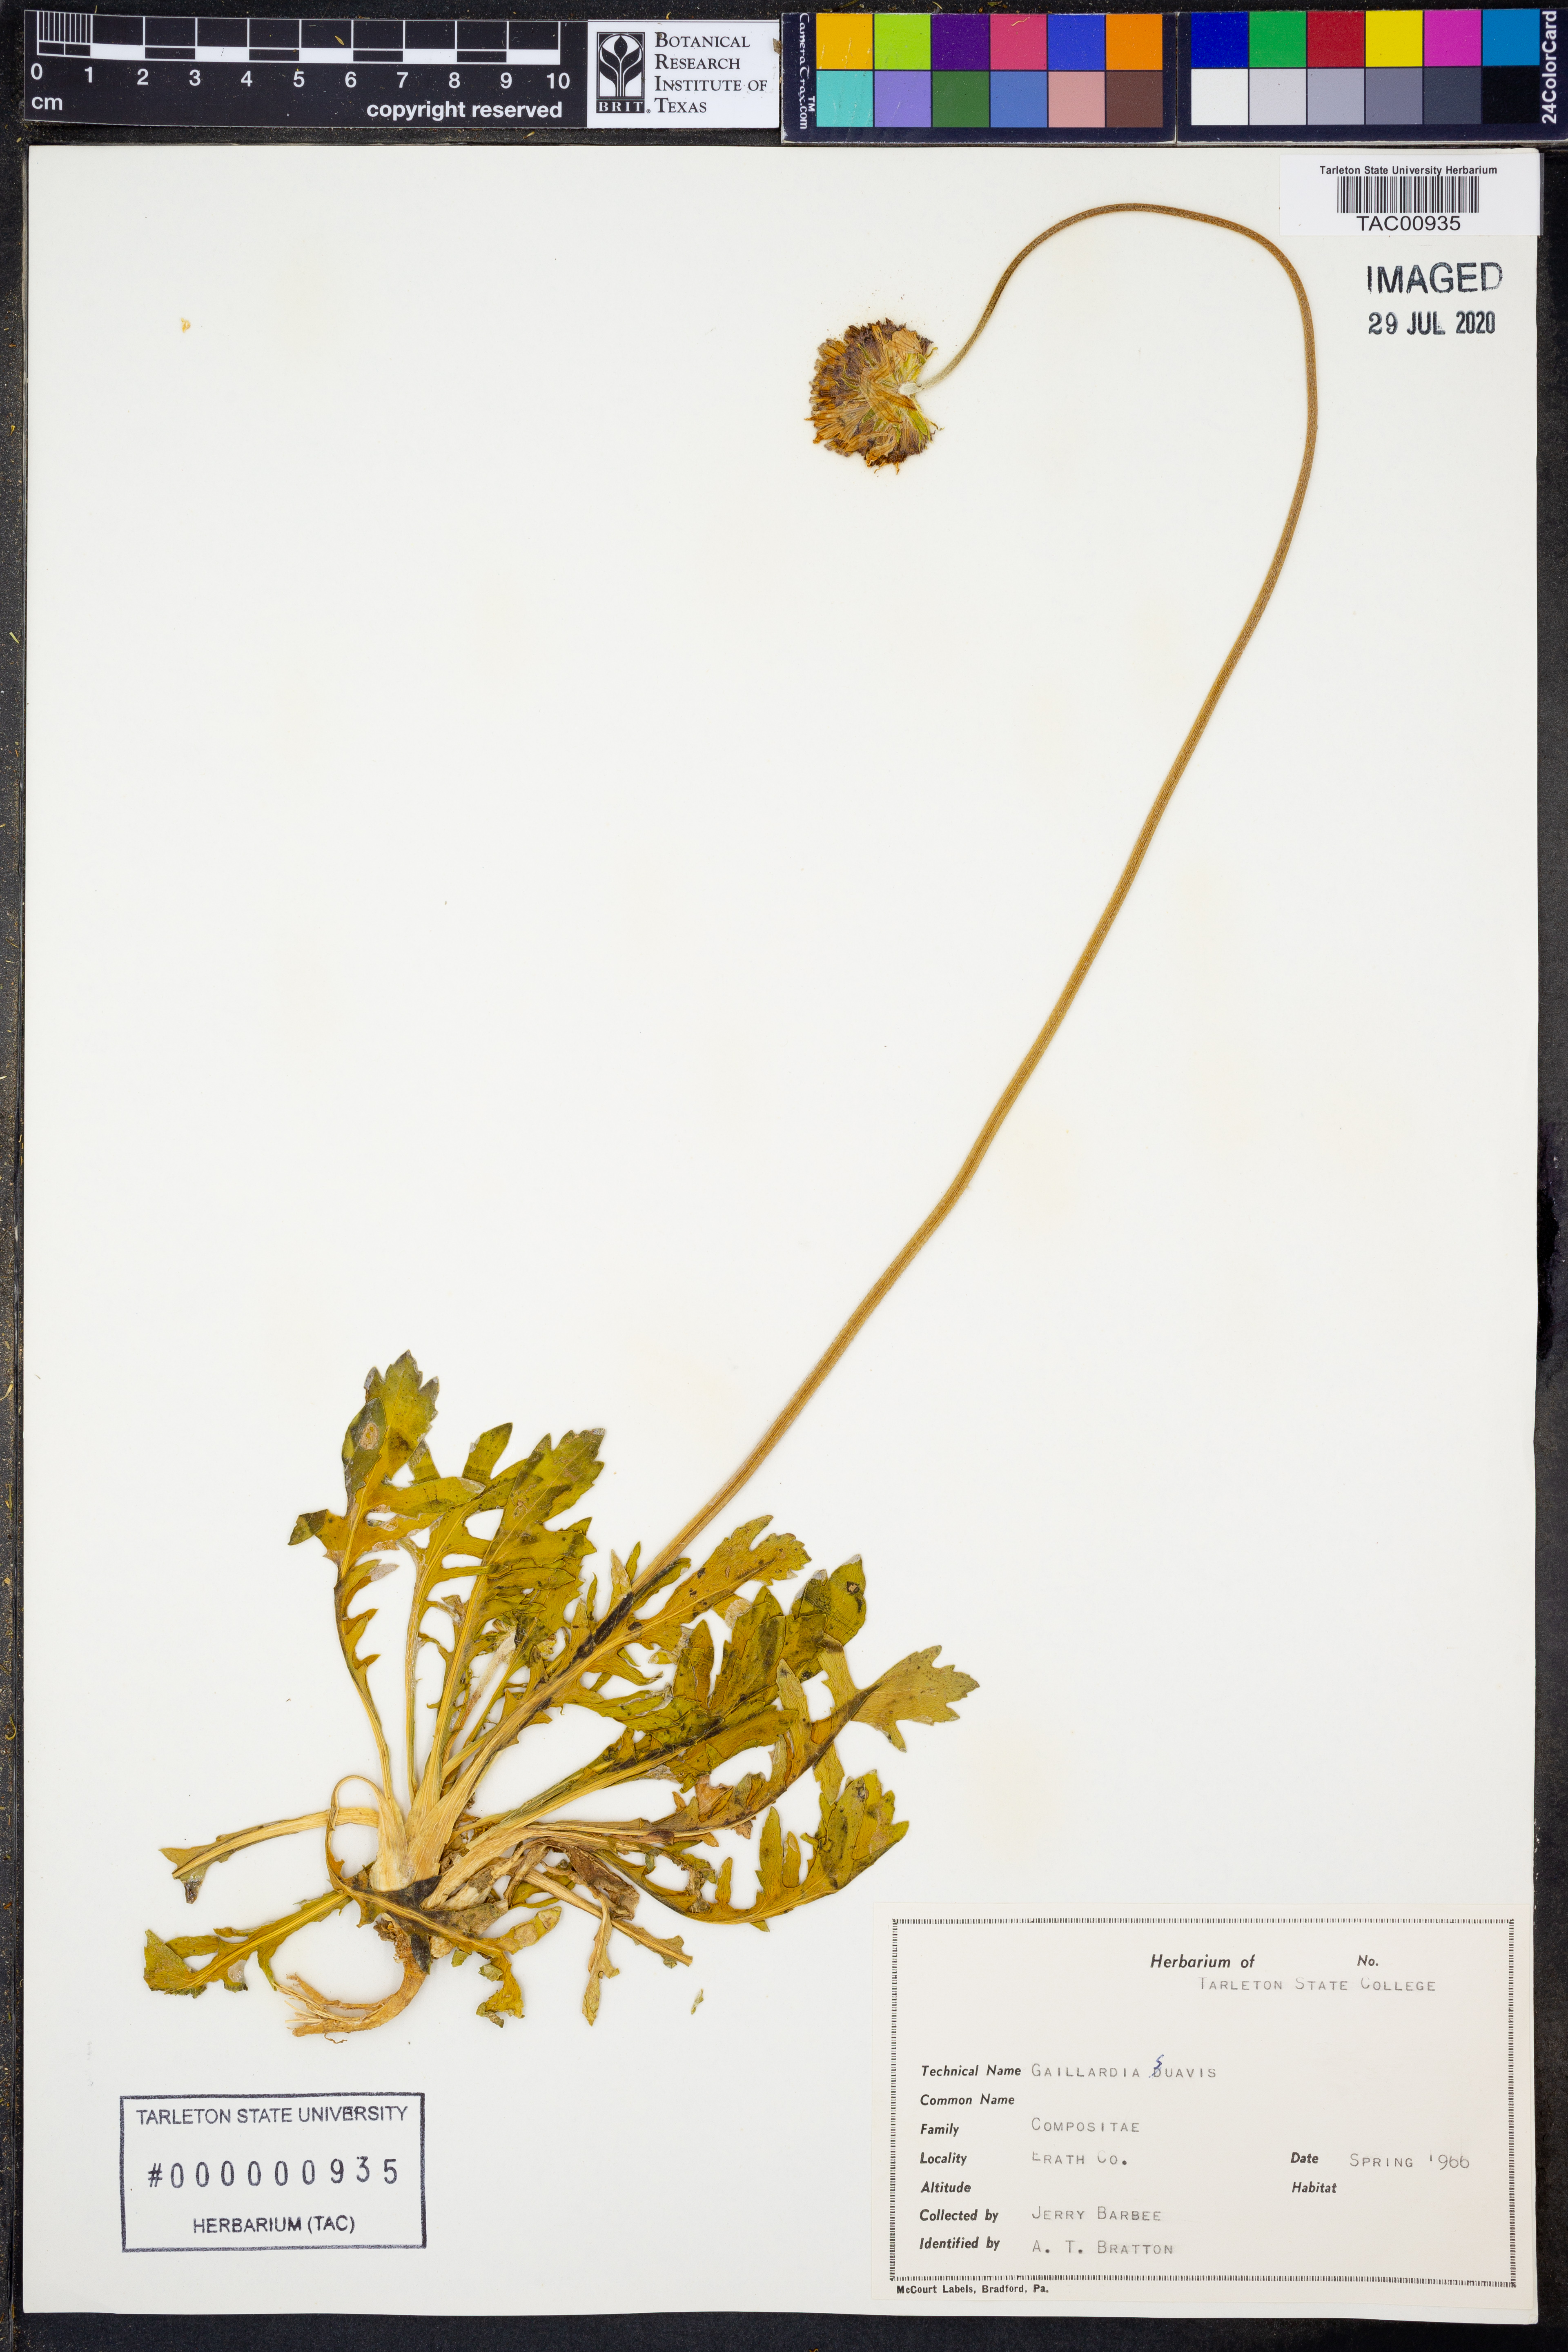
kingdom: Plantae
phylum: Tracheophyta
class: Magnoliopsida
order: Asterales
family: Asteraceae
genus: Gaillardia
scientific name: Gaillardia suavis
